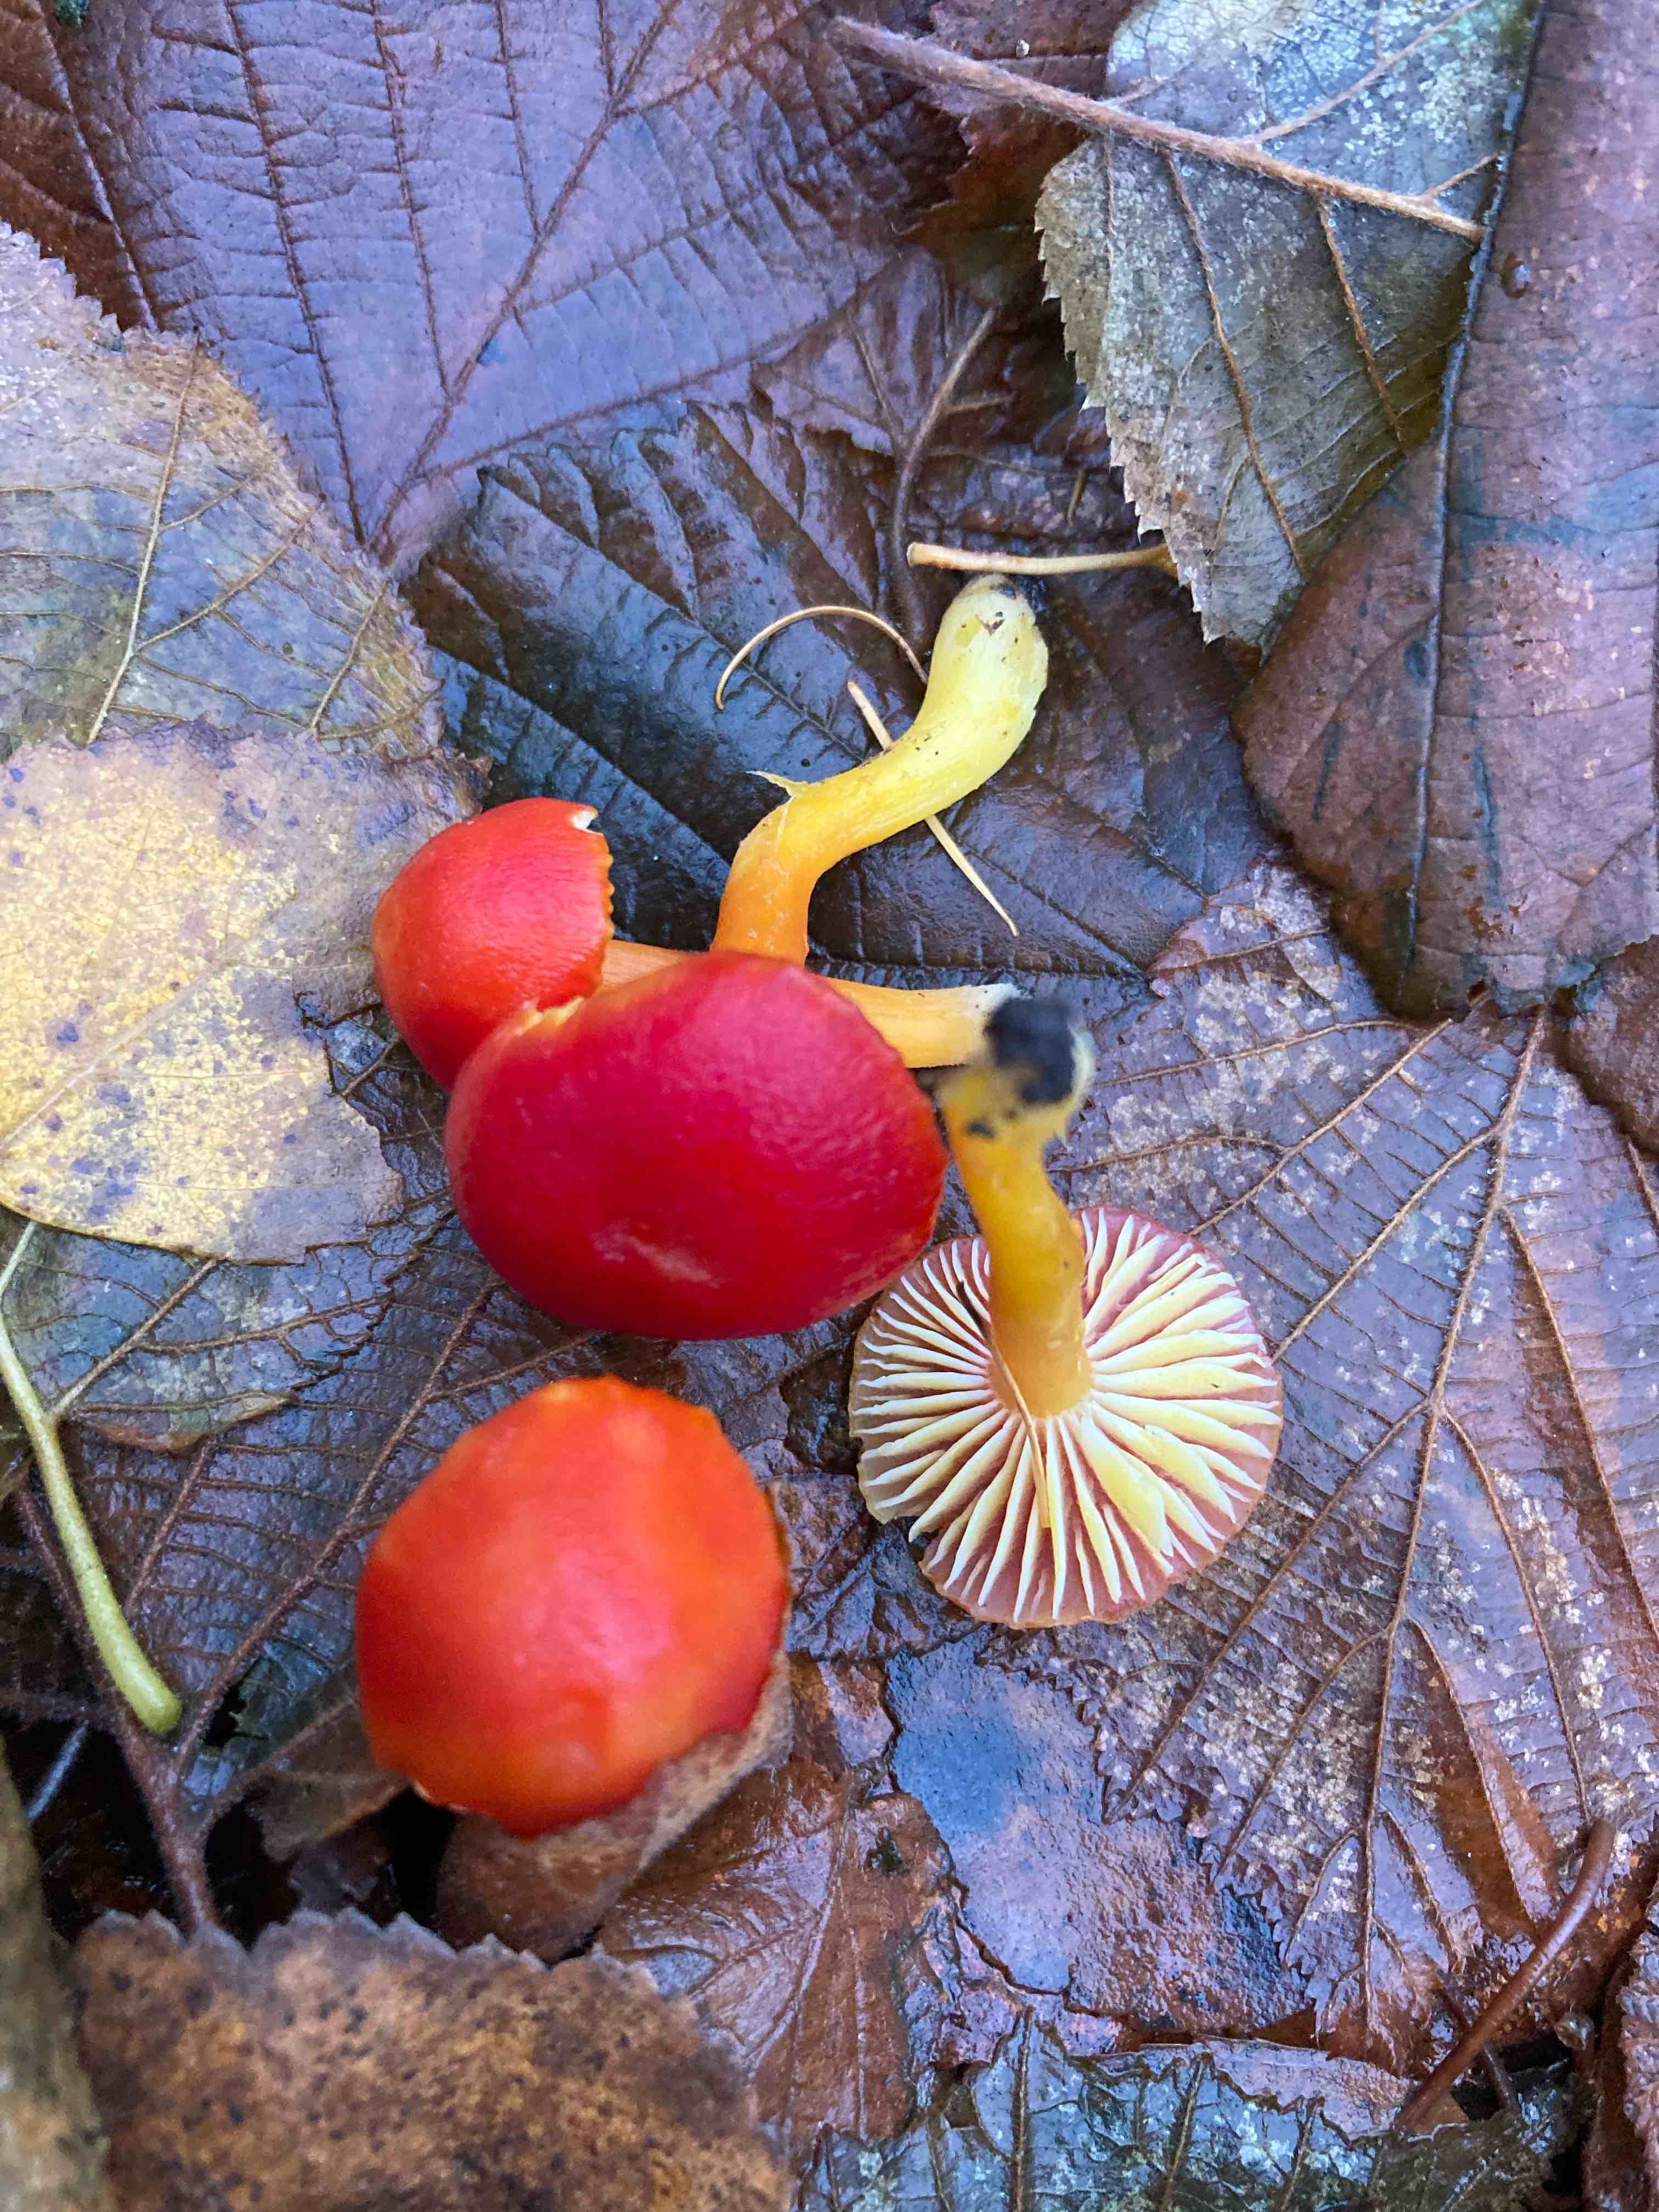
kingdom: Fungi
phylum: Basidiomycota
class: Agaricomycetes
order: Agaricales
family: Hygrophoraceae
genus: Hygrocybe
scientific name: Hygrocybe coccinea
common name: cinnober-vokshat
